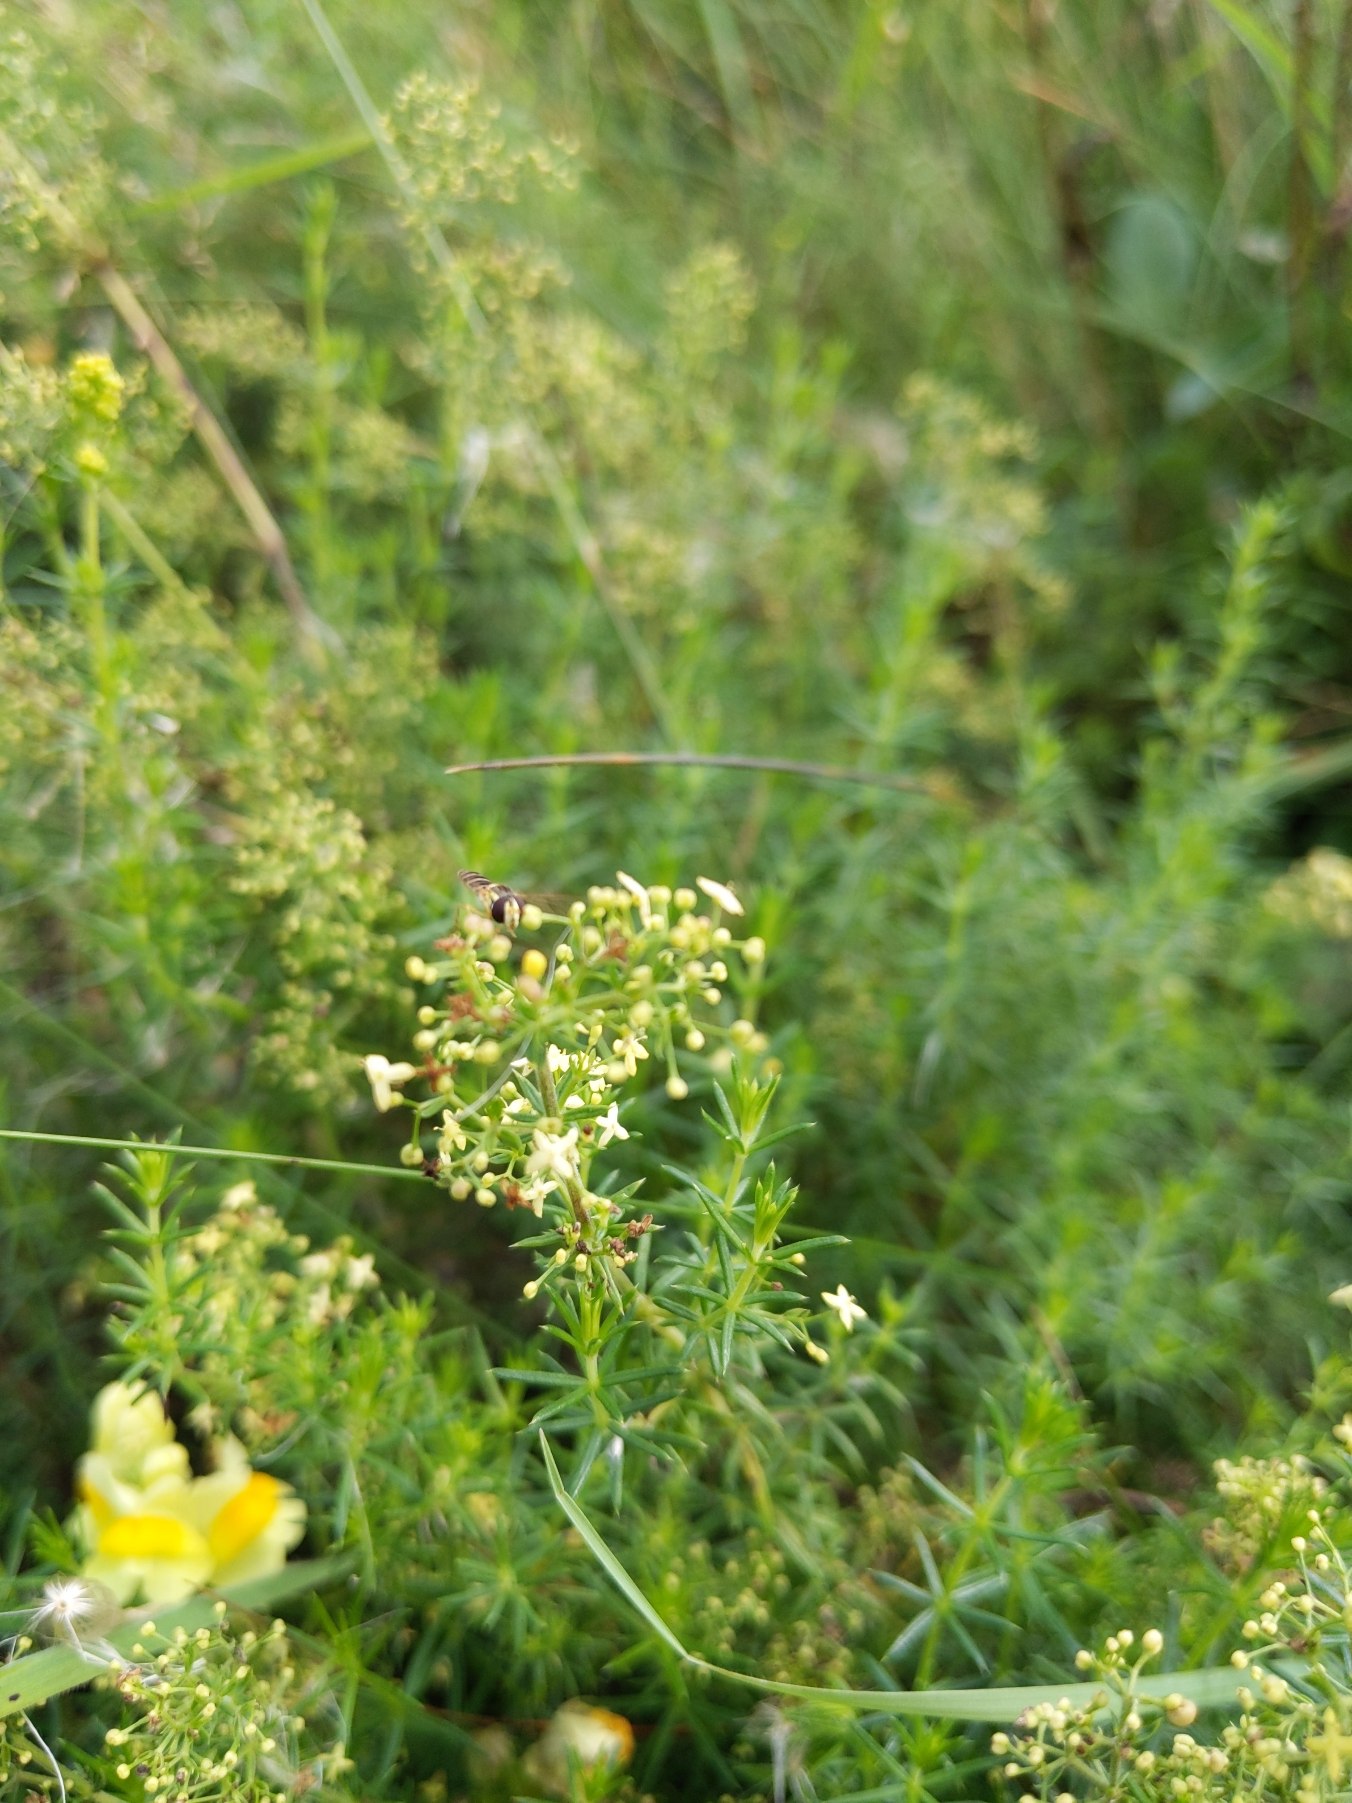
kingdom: Plantae
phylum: Tracheophyta
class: Magnoliopsida
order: Gentianales
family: Rubiaceae
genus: Galium
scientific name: Galium verum
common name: Gul snerre
